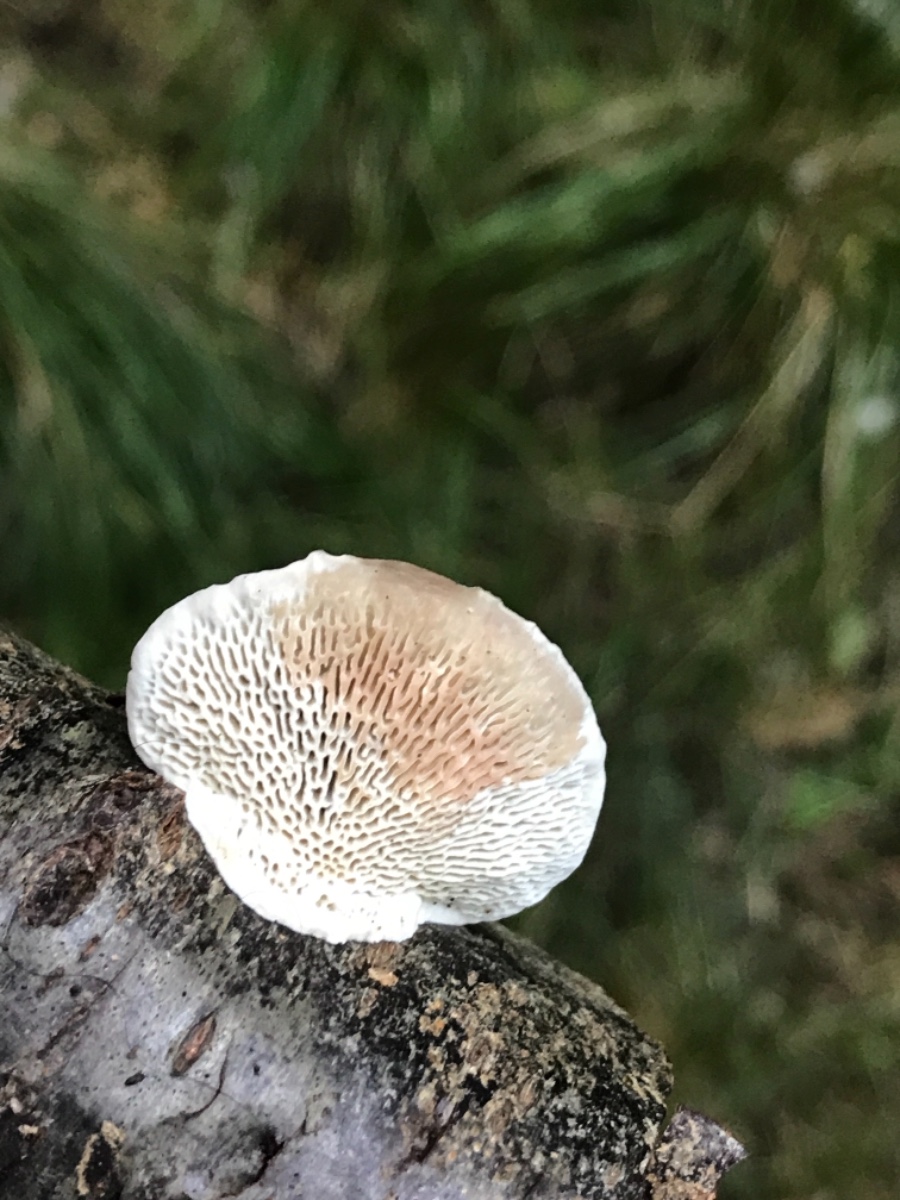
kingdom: Fungi
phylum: Basidiomycota
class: Agaricomycetes
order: Polyporales
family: Polyporaceae
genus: Daedaleopsis
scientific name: Daedaleopsis confragosa
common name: rødmende læderporesvamp
